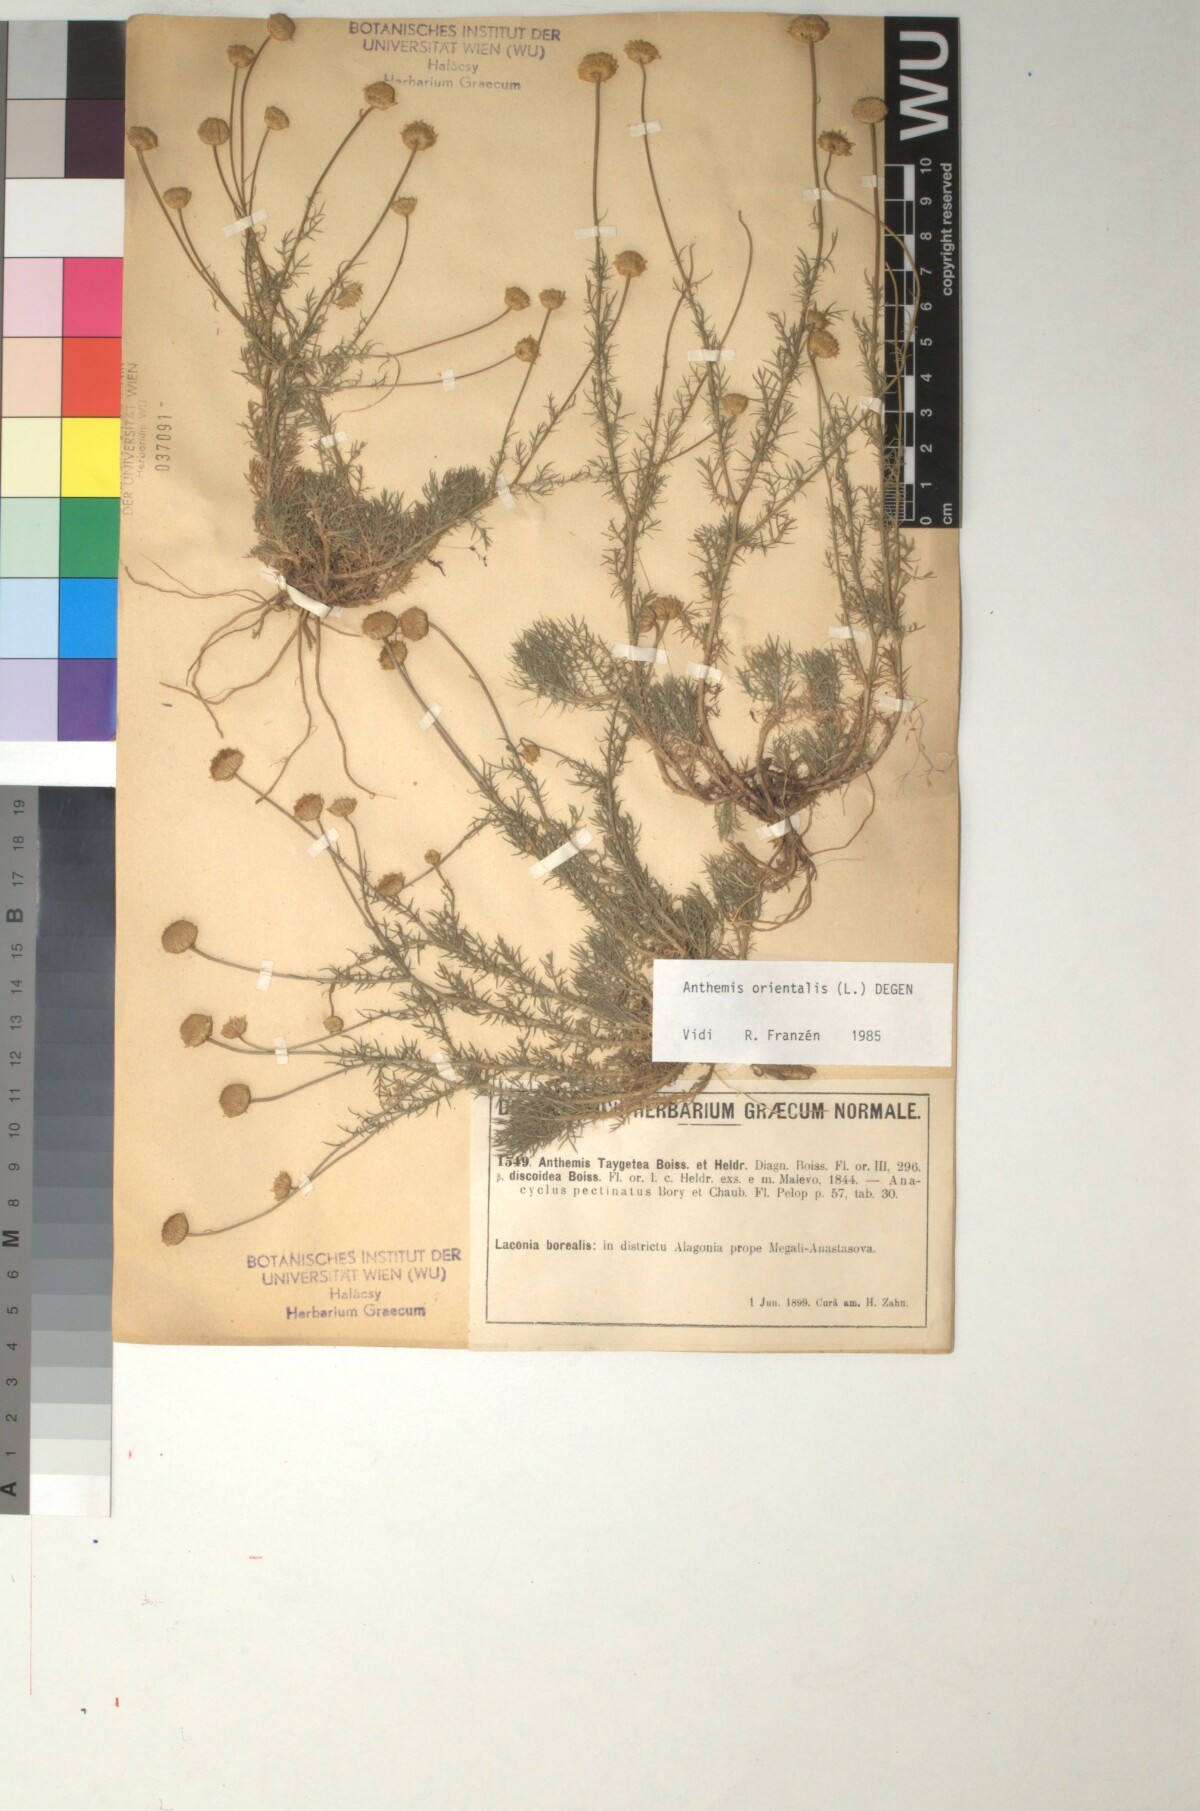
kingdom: Plantae
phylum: Tracheophyta
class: Magnoliopsida
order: Asterales
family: Asteraceae
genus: Anthemis
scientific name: Anthemis orientalis
